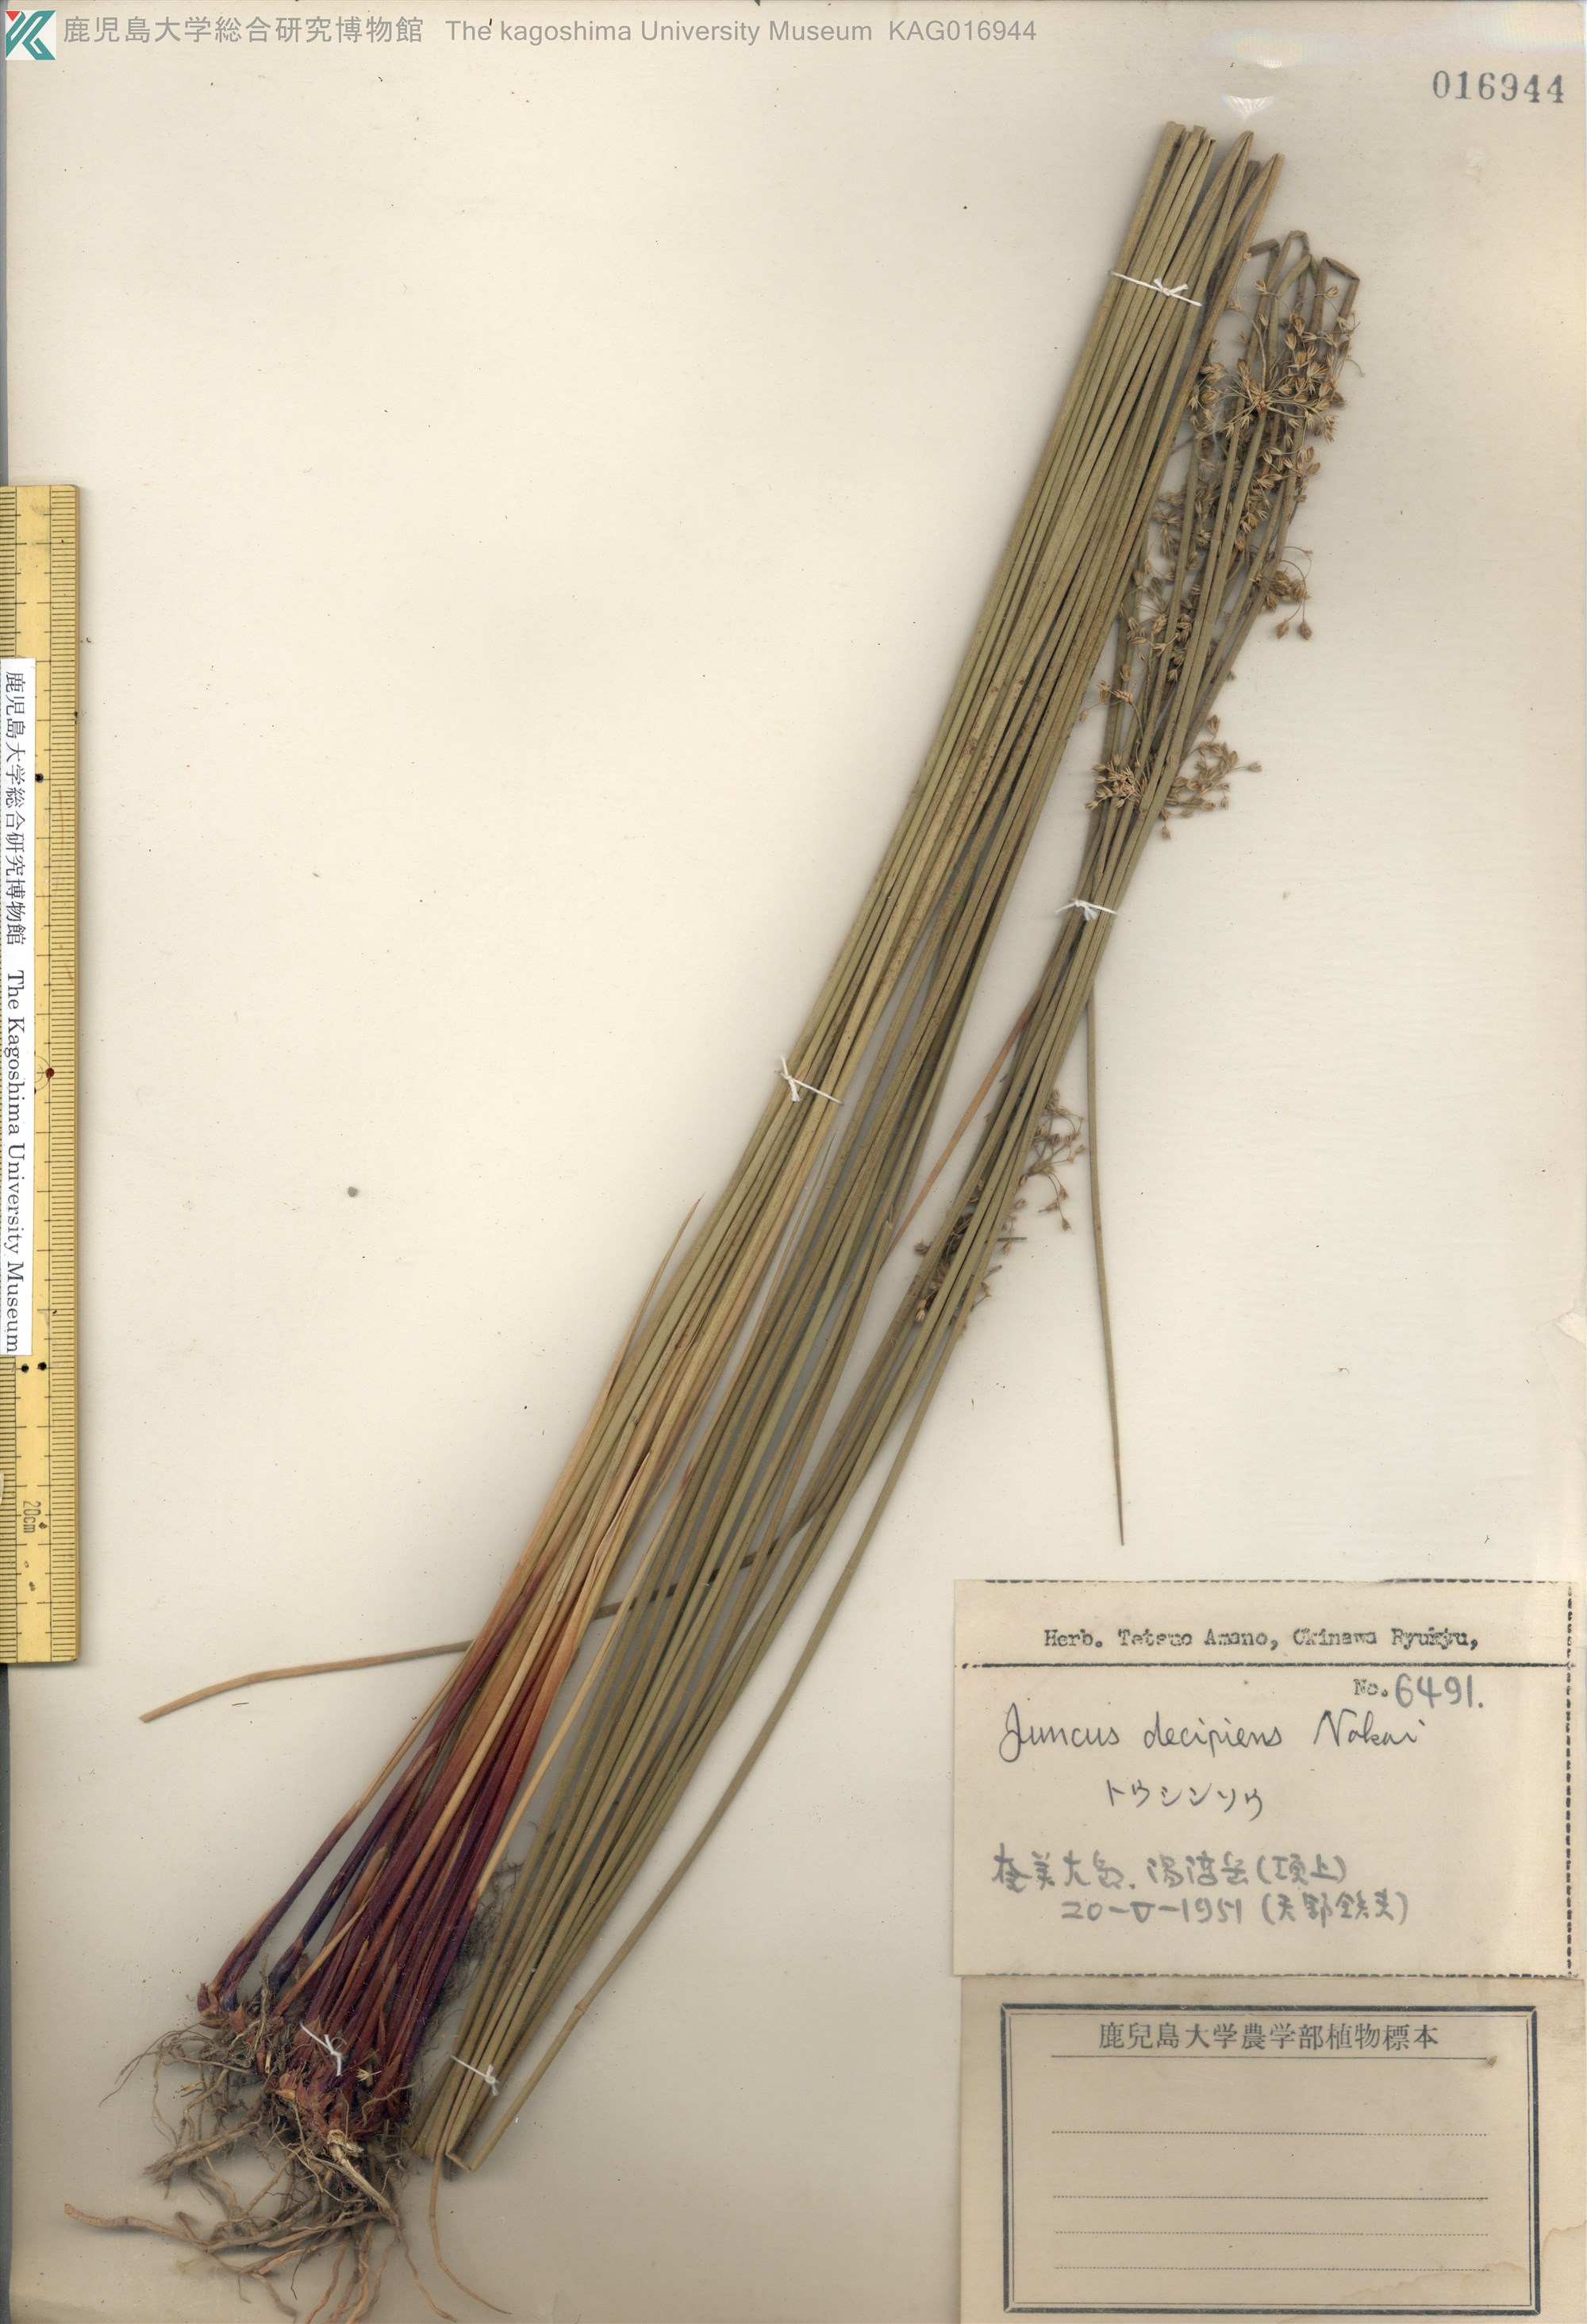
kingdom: Plantae
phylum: Tracheophyta
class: Liliopsida
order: Poales
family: Juncaceae
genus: Juncus
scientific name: Juncus decipiens
